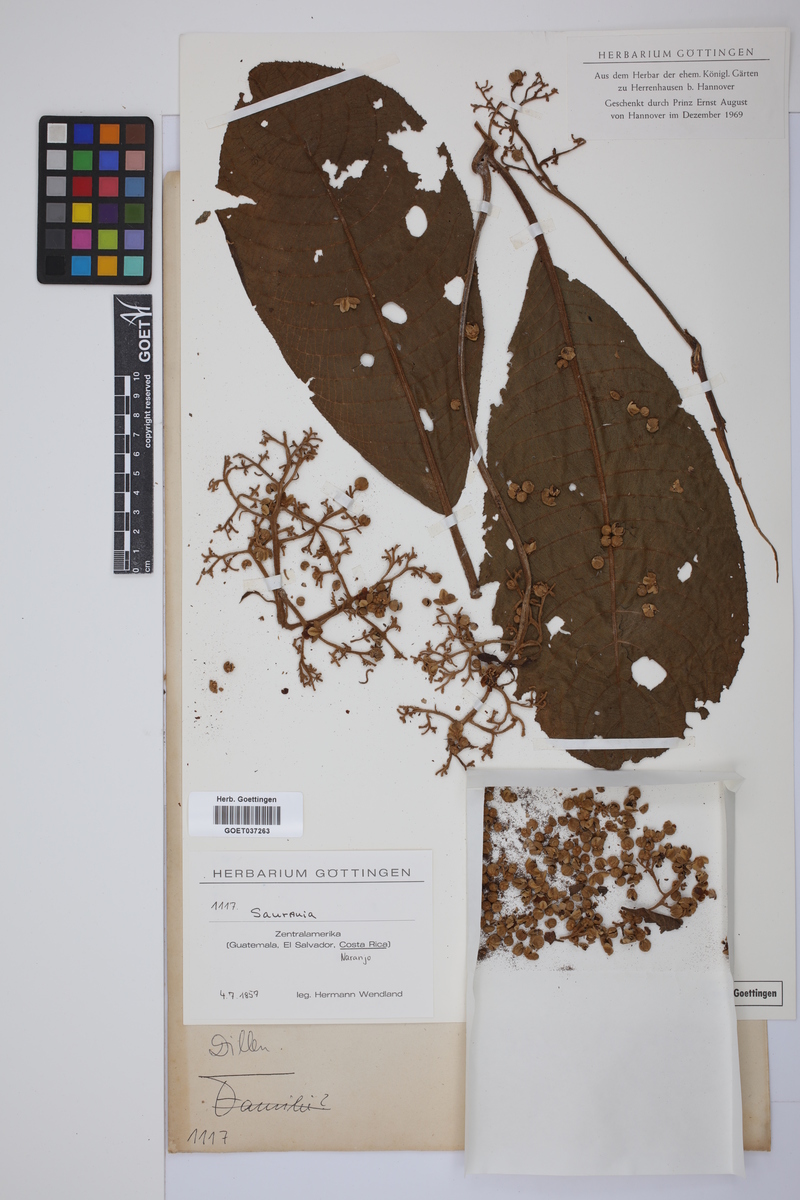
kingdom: Plantae
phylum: Tracheophyta
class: Magnoliopsida
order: Ericales
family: Actinidiaceae
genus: Saurauia
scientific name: Saurauia
